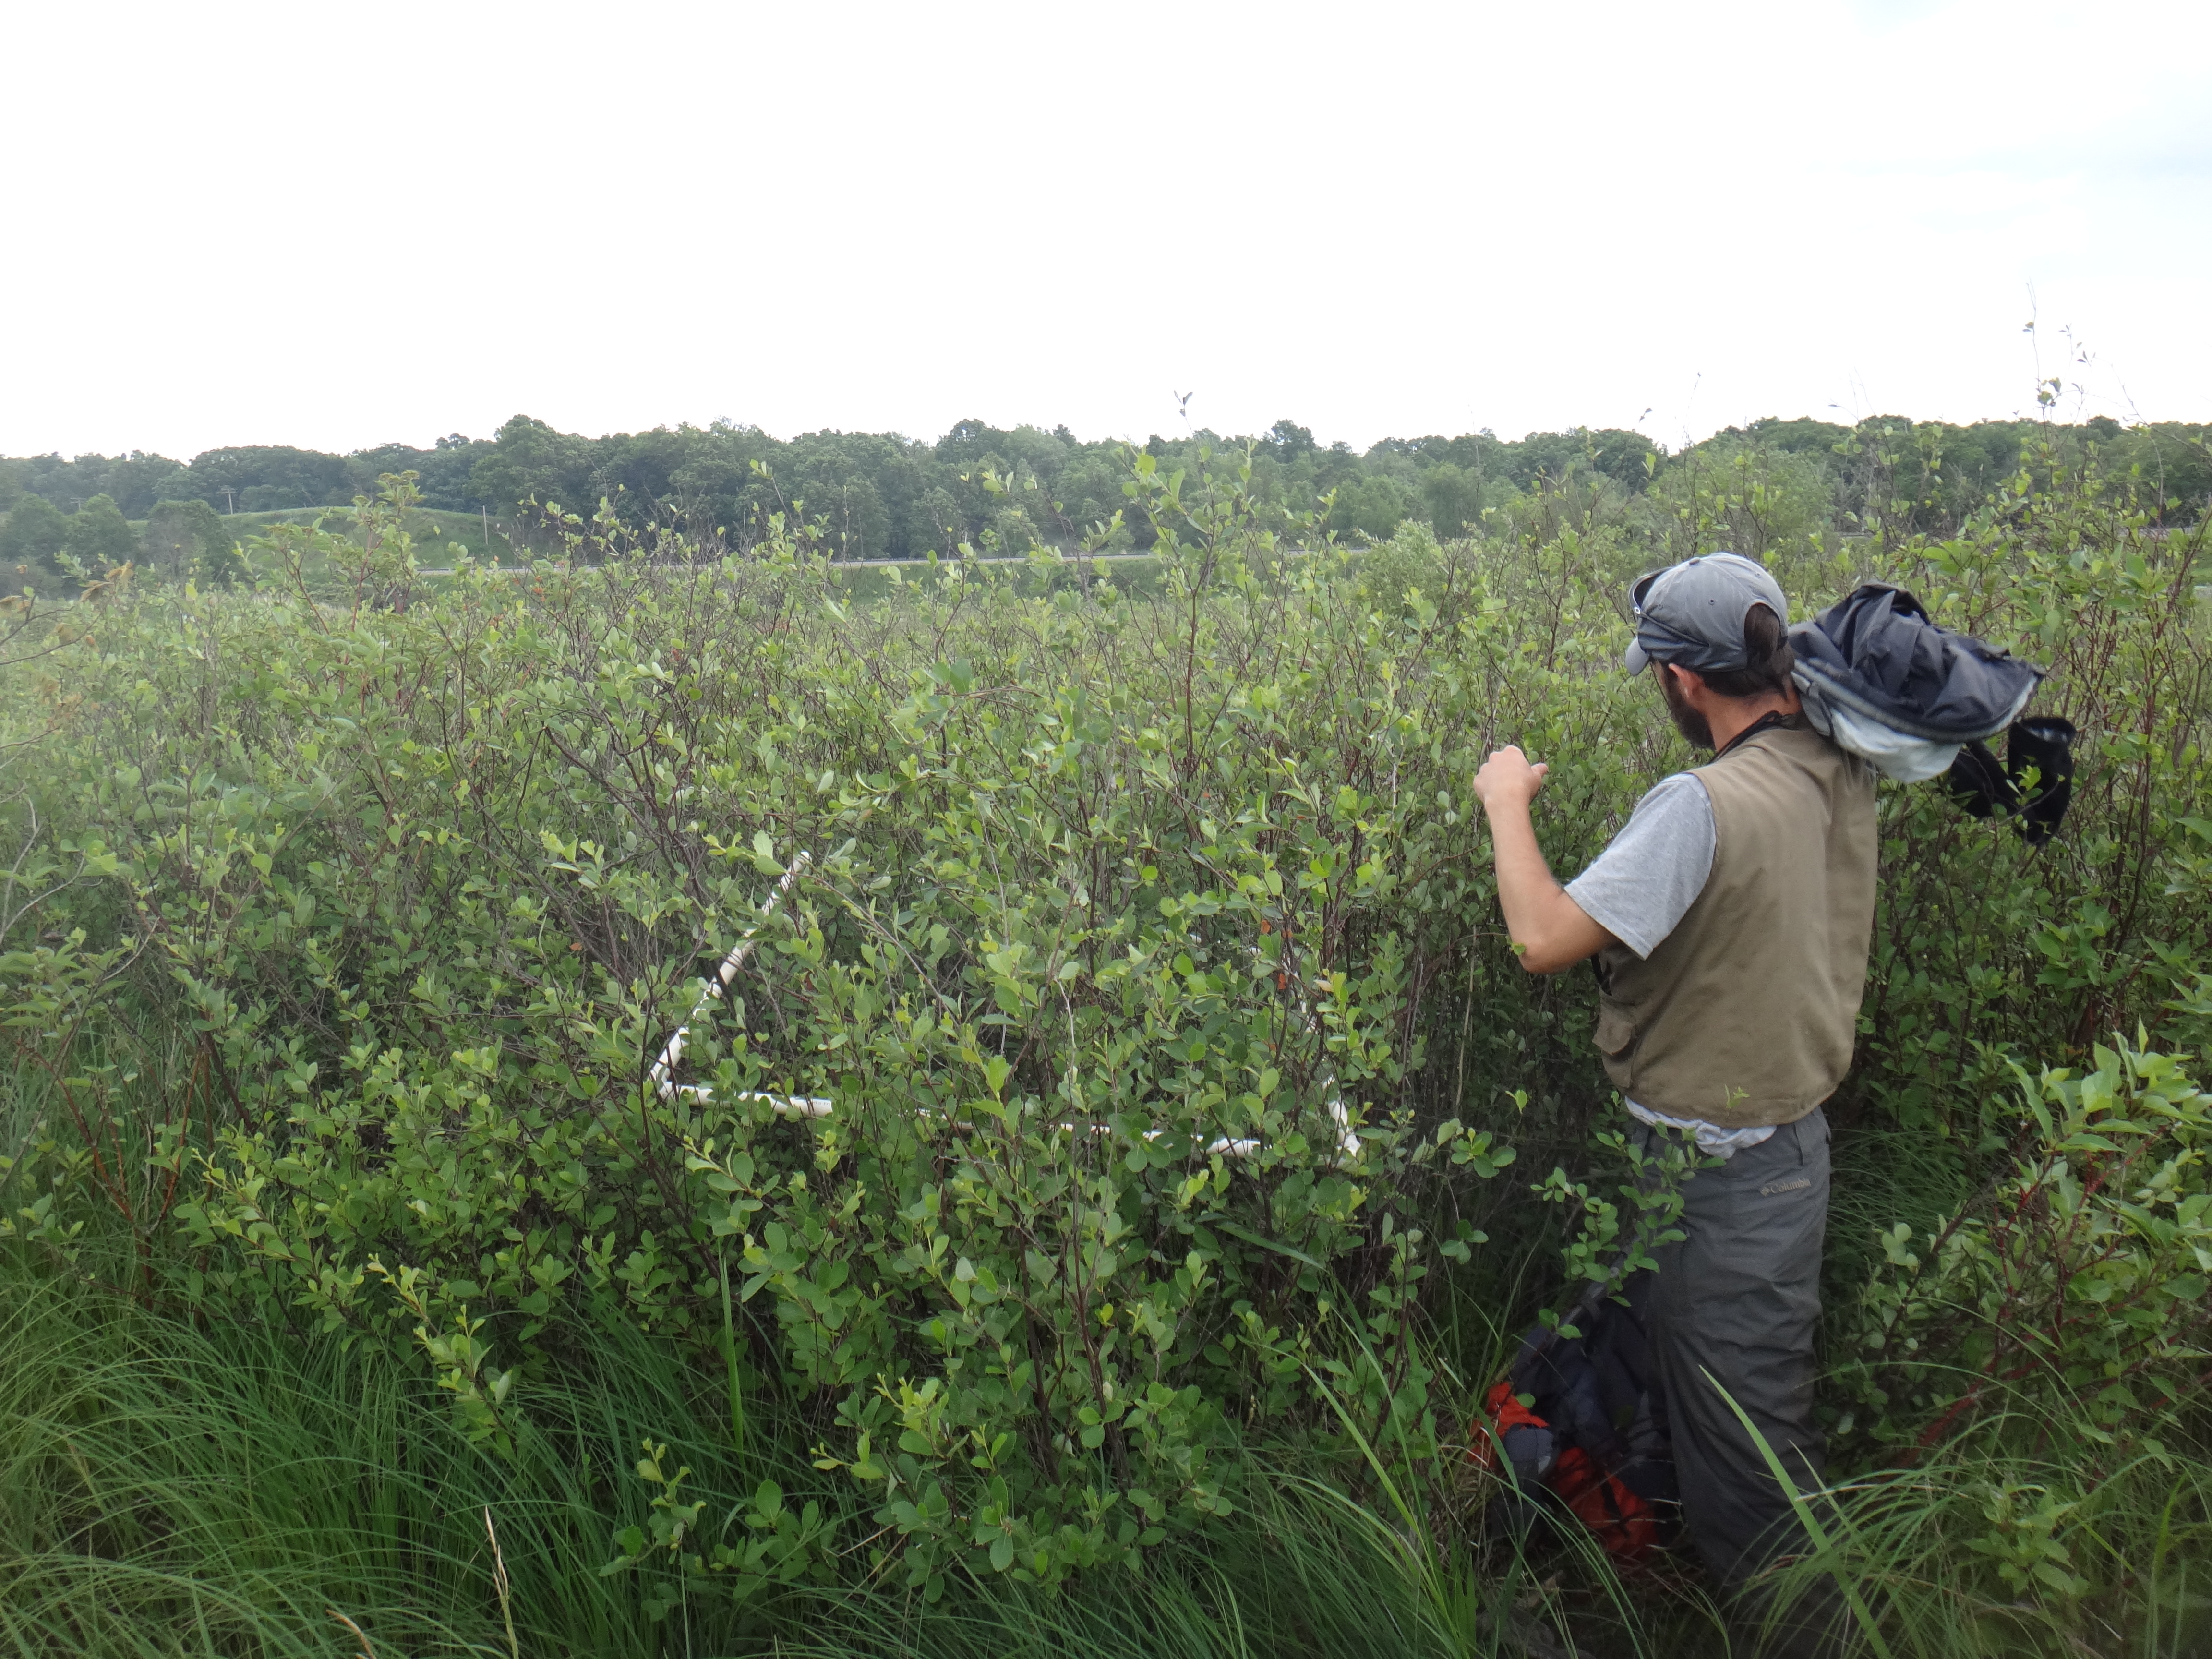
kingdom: Plantae
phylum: Tracheophyta
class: Magnoliopsida
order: Fagales
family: Betulaceae
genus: Betula
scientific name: Betula pumila
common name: Bog birch
